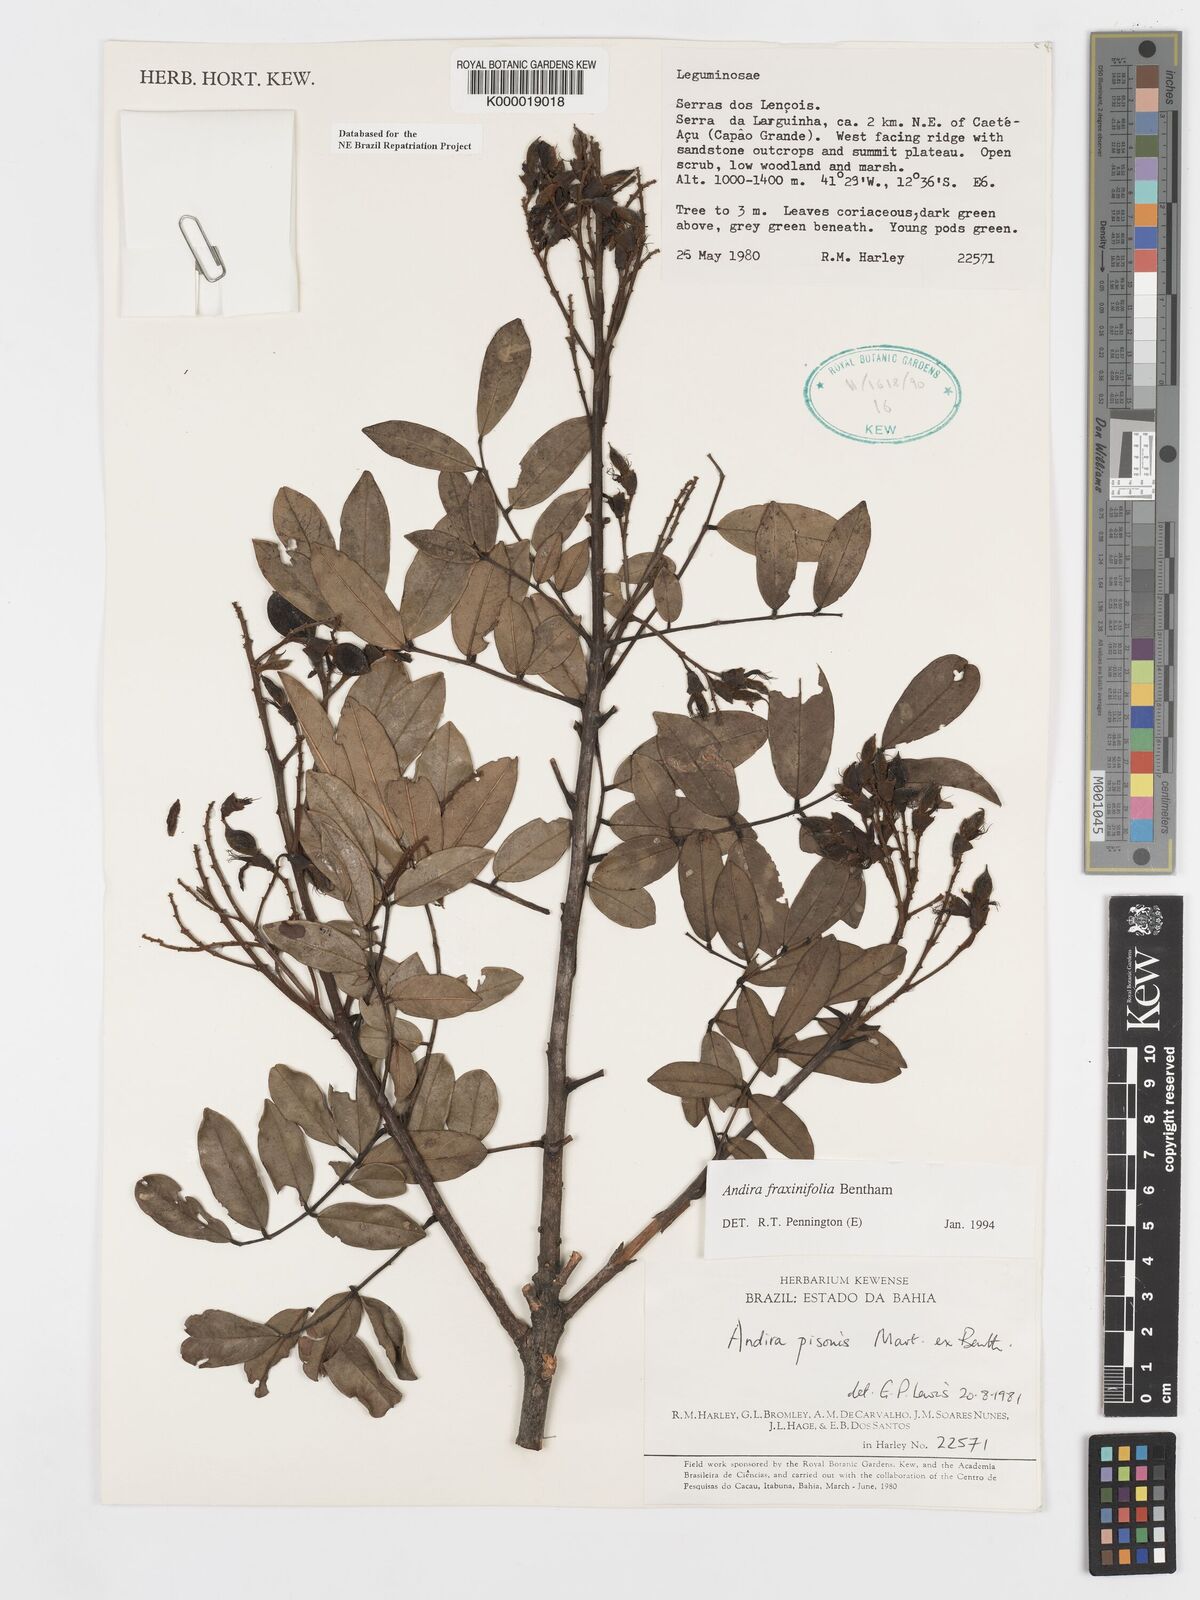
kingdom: Plantae
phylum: Tracheophyta
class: Magnoliopsida
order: Fabales
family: Fabaceae
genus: Andira
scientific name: Andira fraxinifolia
